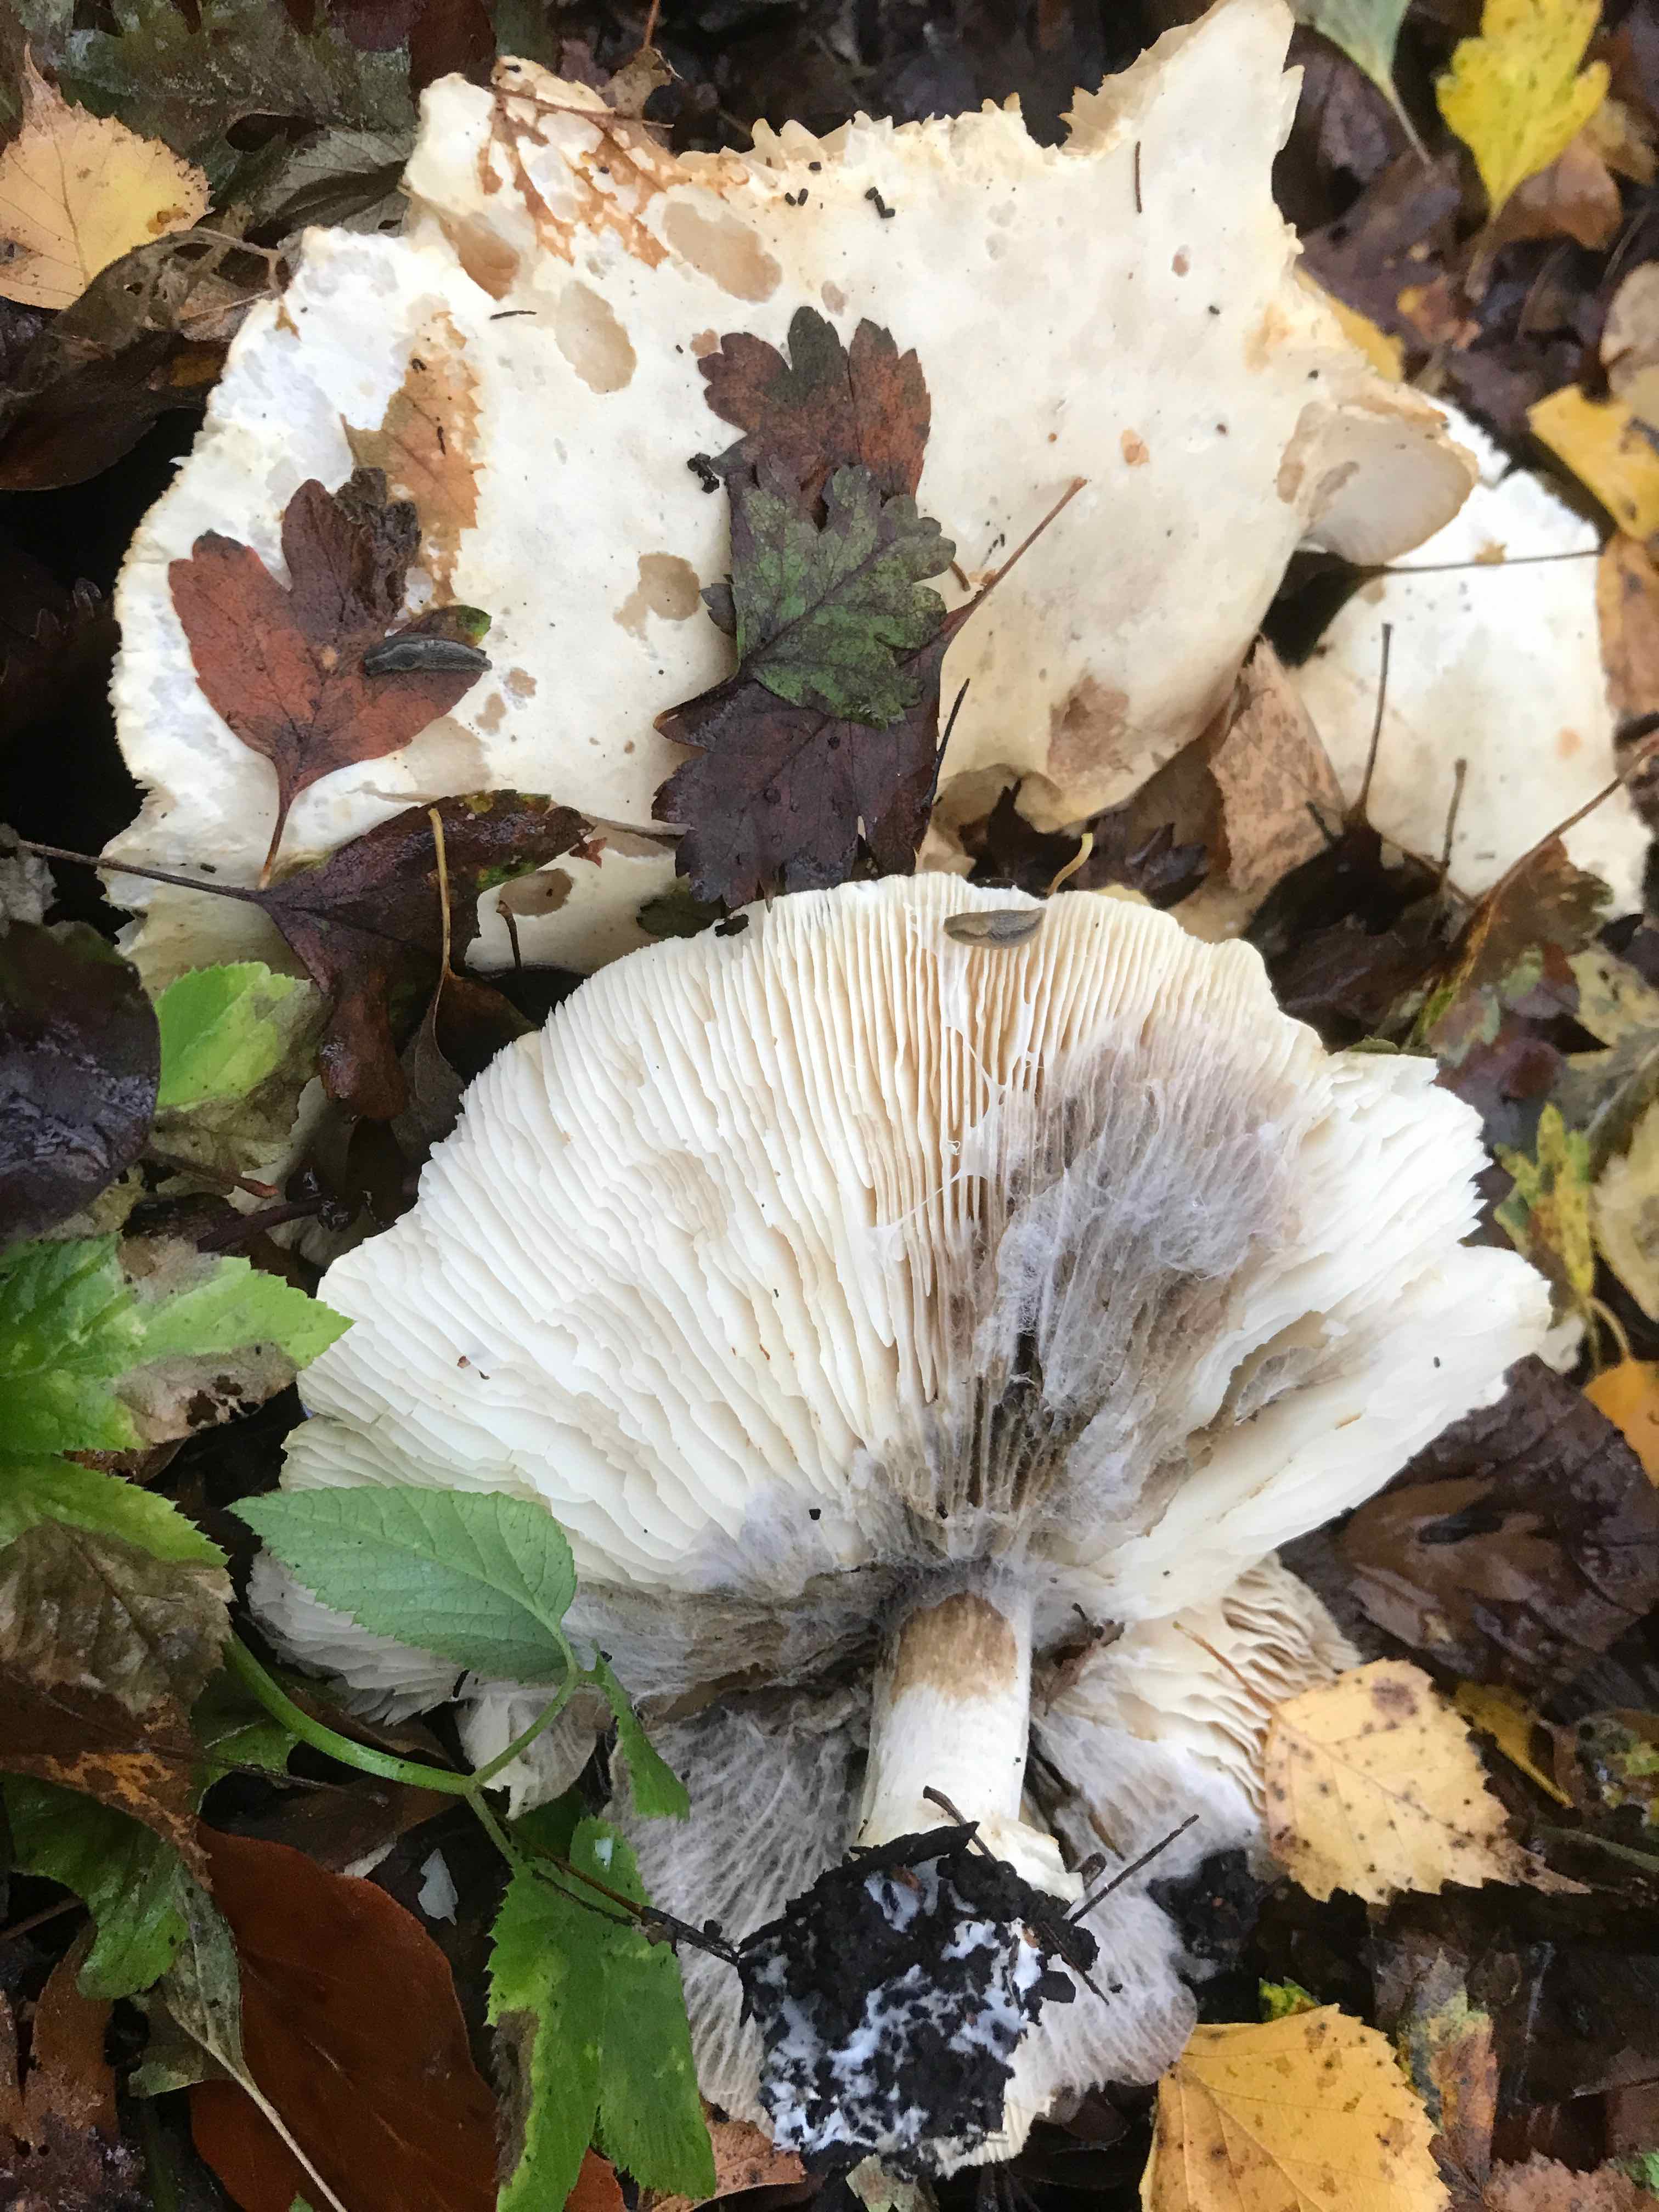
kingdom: Fungi
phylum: Basidiomycota
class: Agaricomycetes
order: Agaricales
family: Tricholomataceae
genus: Tricholoma
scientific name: Tricholoma stiparophyllum
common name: hvid ridderhat
